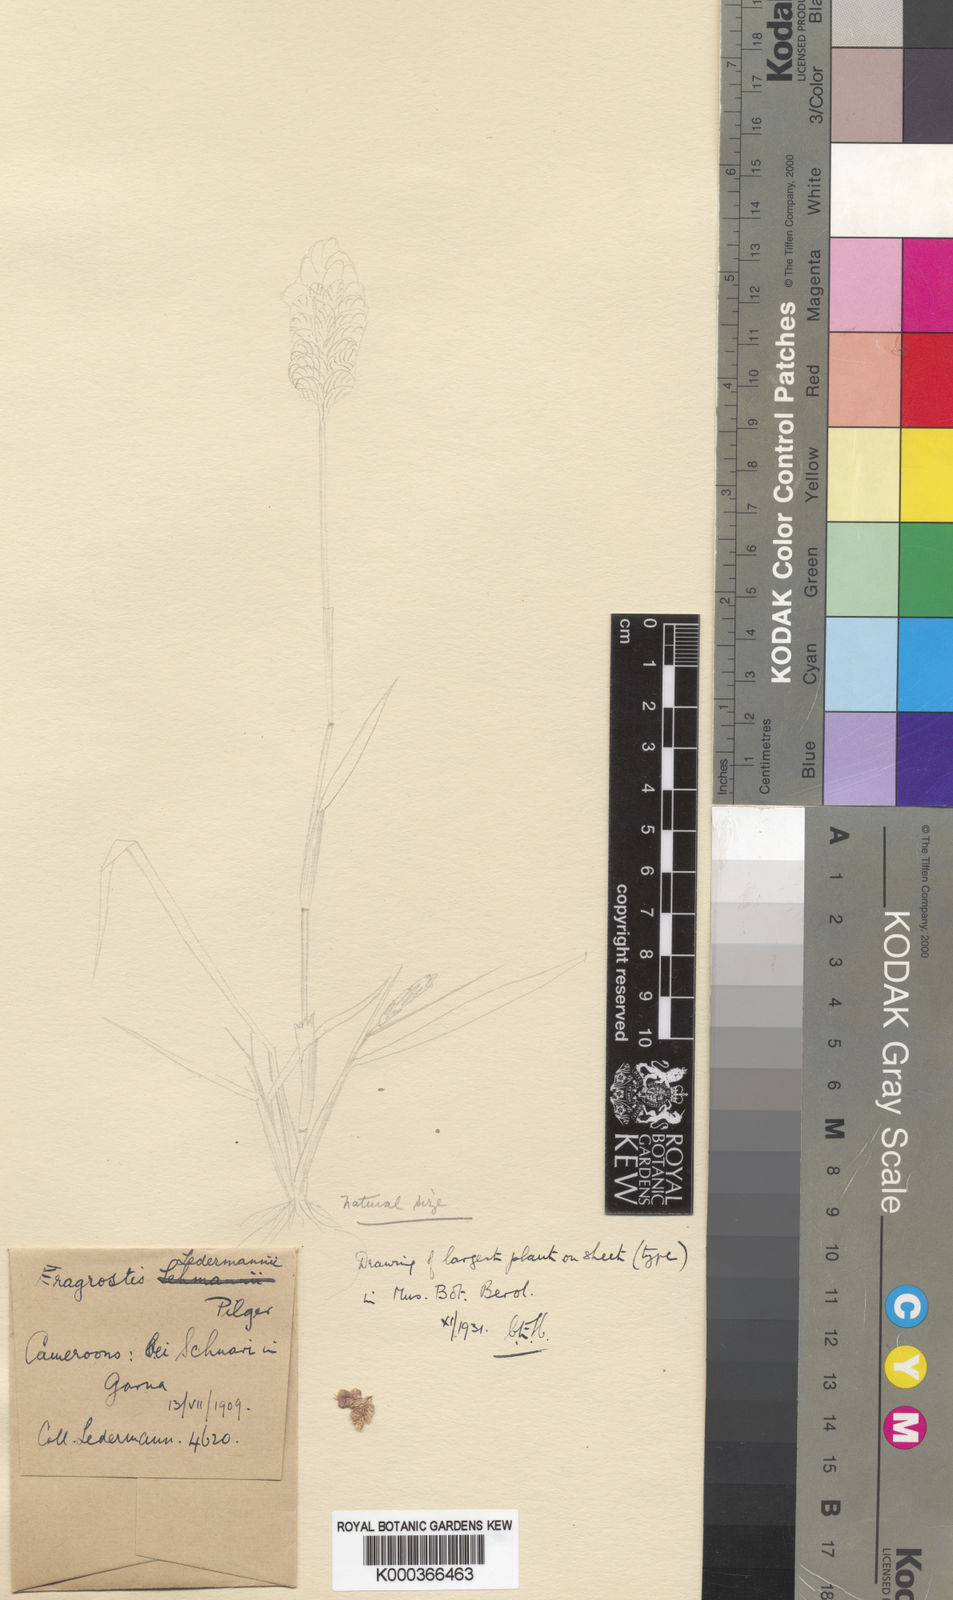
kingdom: Plantae
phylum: Tracheophyta
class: Liliopsida
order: Poales
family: Poaceae
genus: Eragrostis
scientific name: Eragrostis turgida
